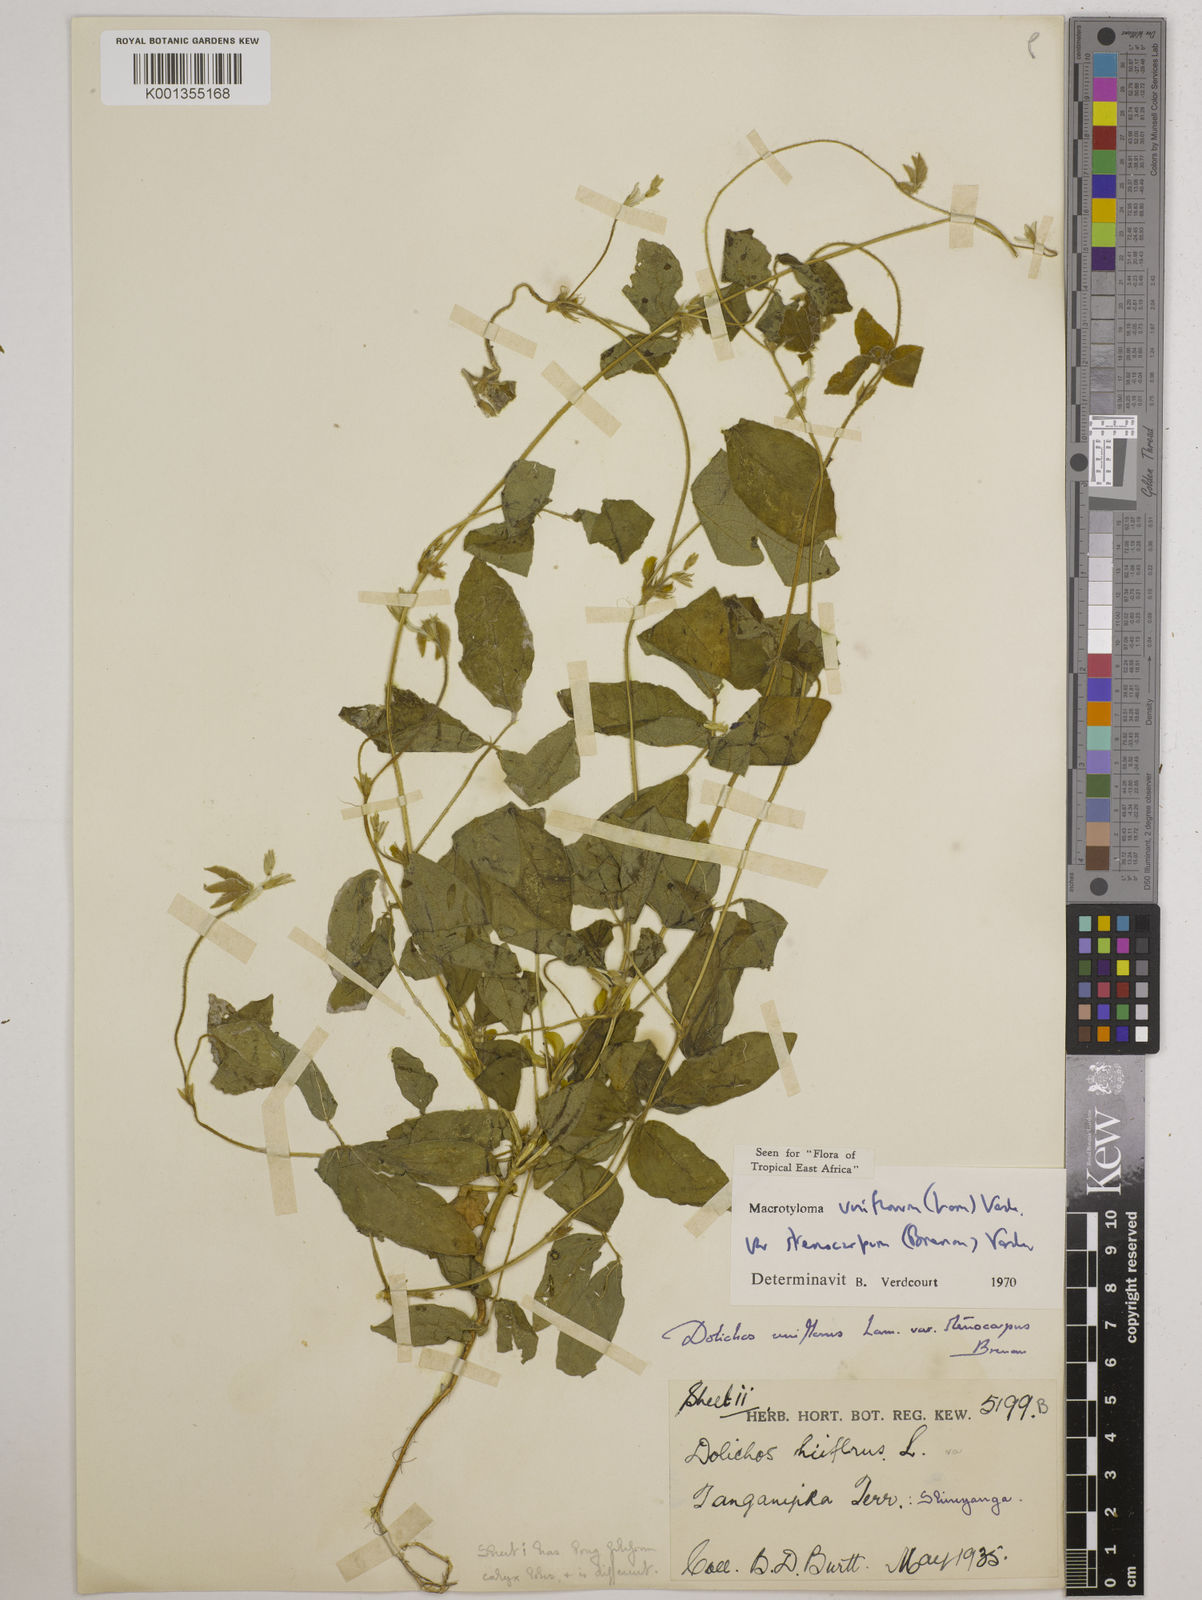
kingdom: Plantae
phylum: Tracheophyta
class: Magnoliopsida
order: Fabales
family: Fabaceae
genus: Macrotyloma
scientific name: Macrotyloma
